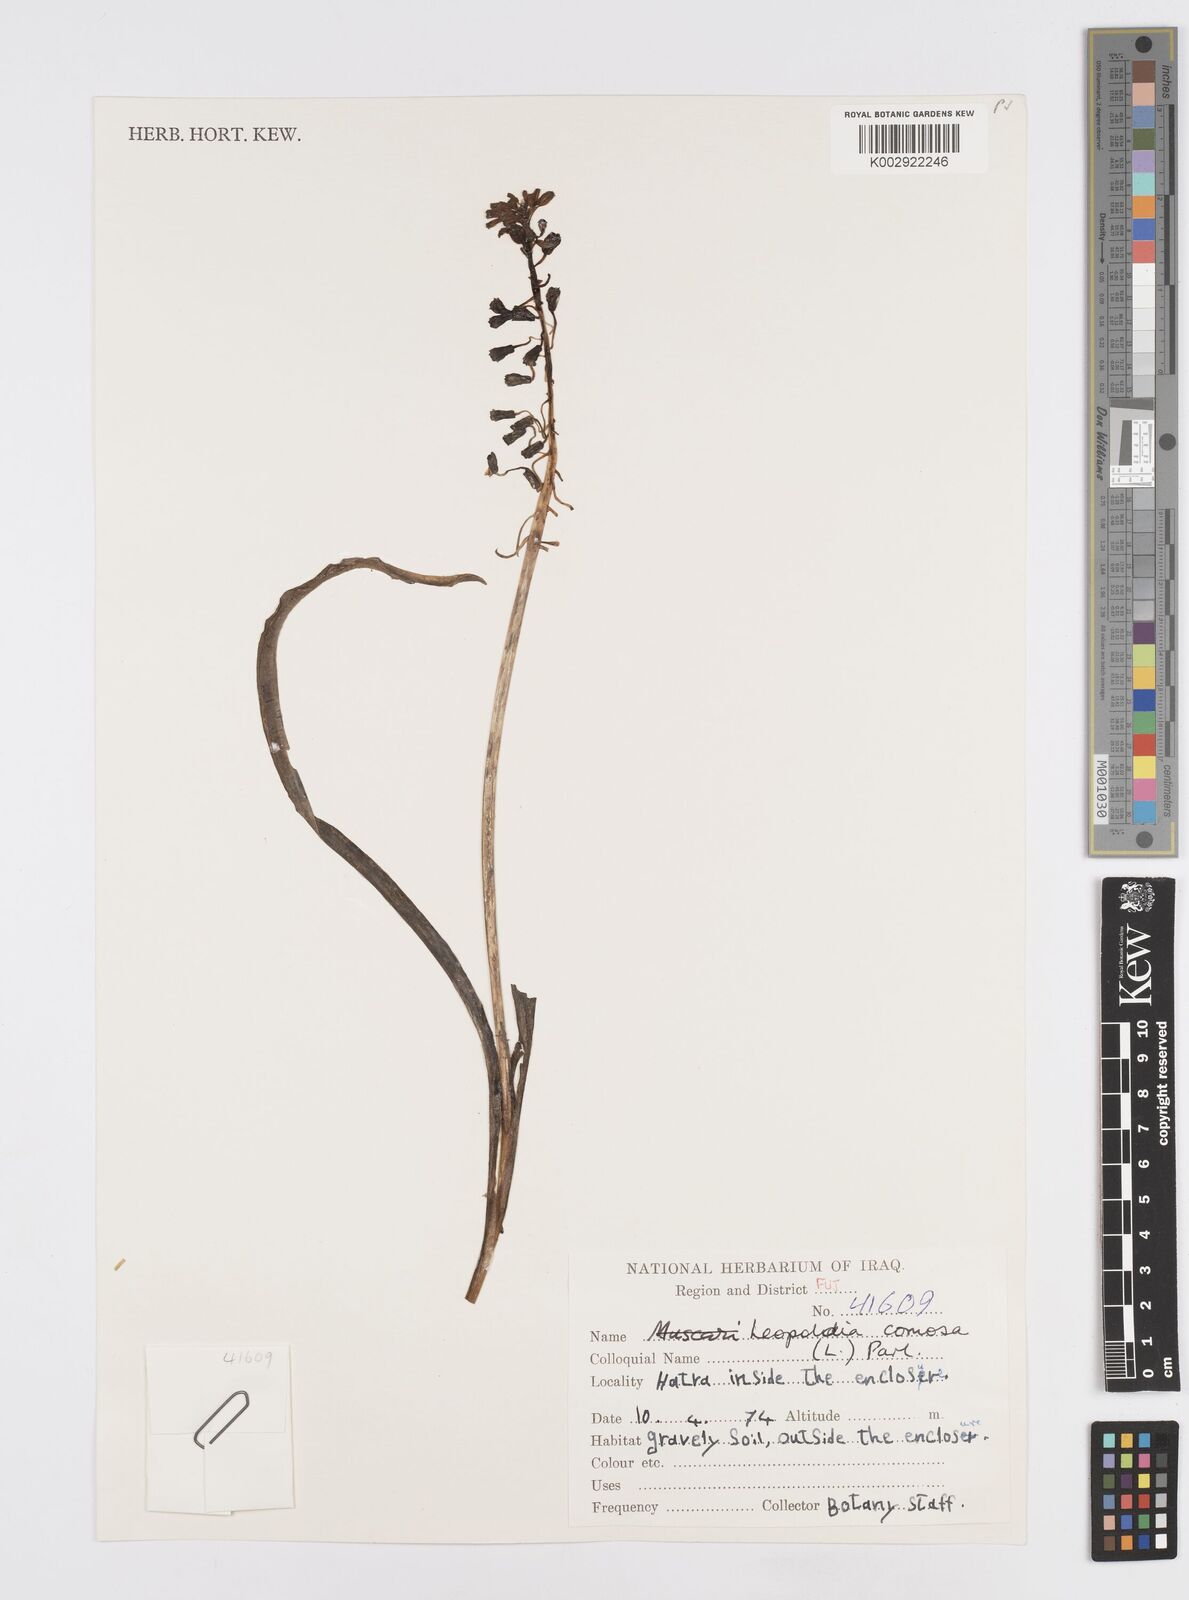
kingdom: Plantae
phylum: Tracheophyta
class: Liliopsida
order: Asparagales
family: Asparagaceae
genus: Muscari
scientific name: Muscari comosum
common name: Tassel hyacinth
